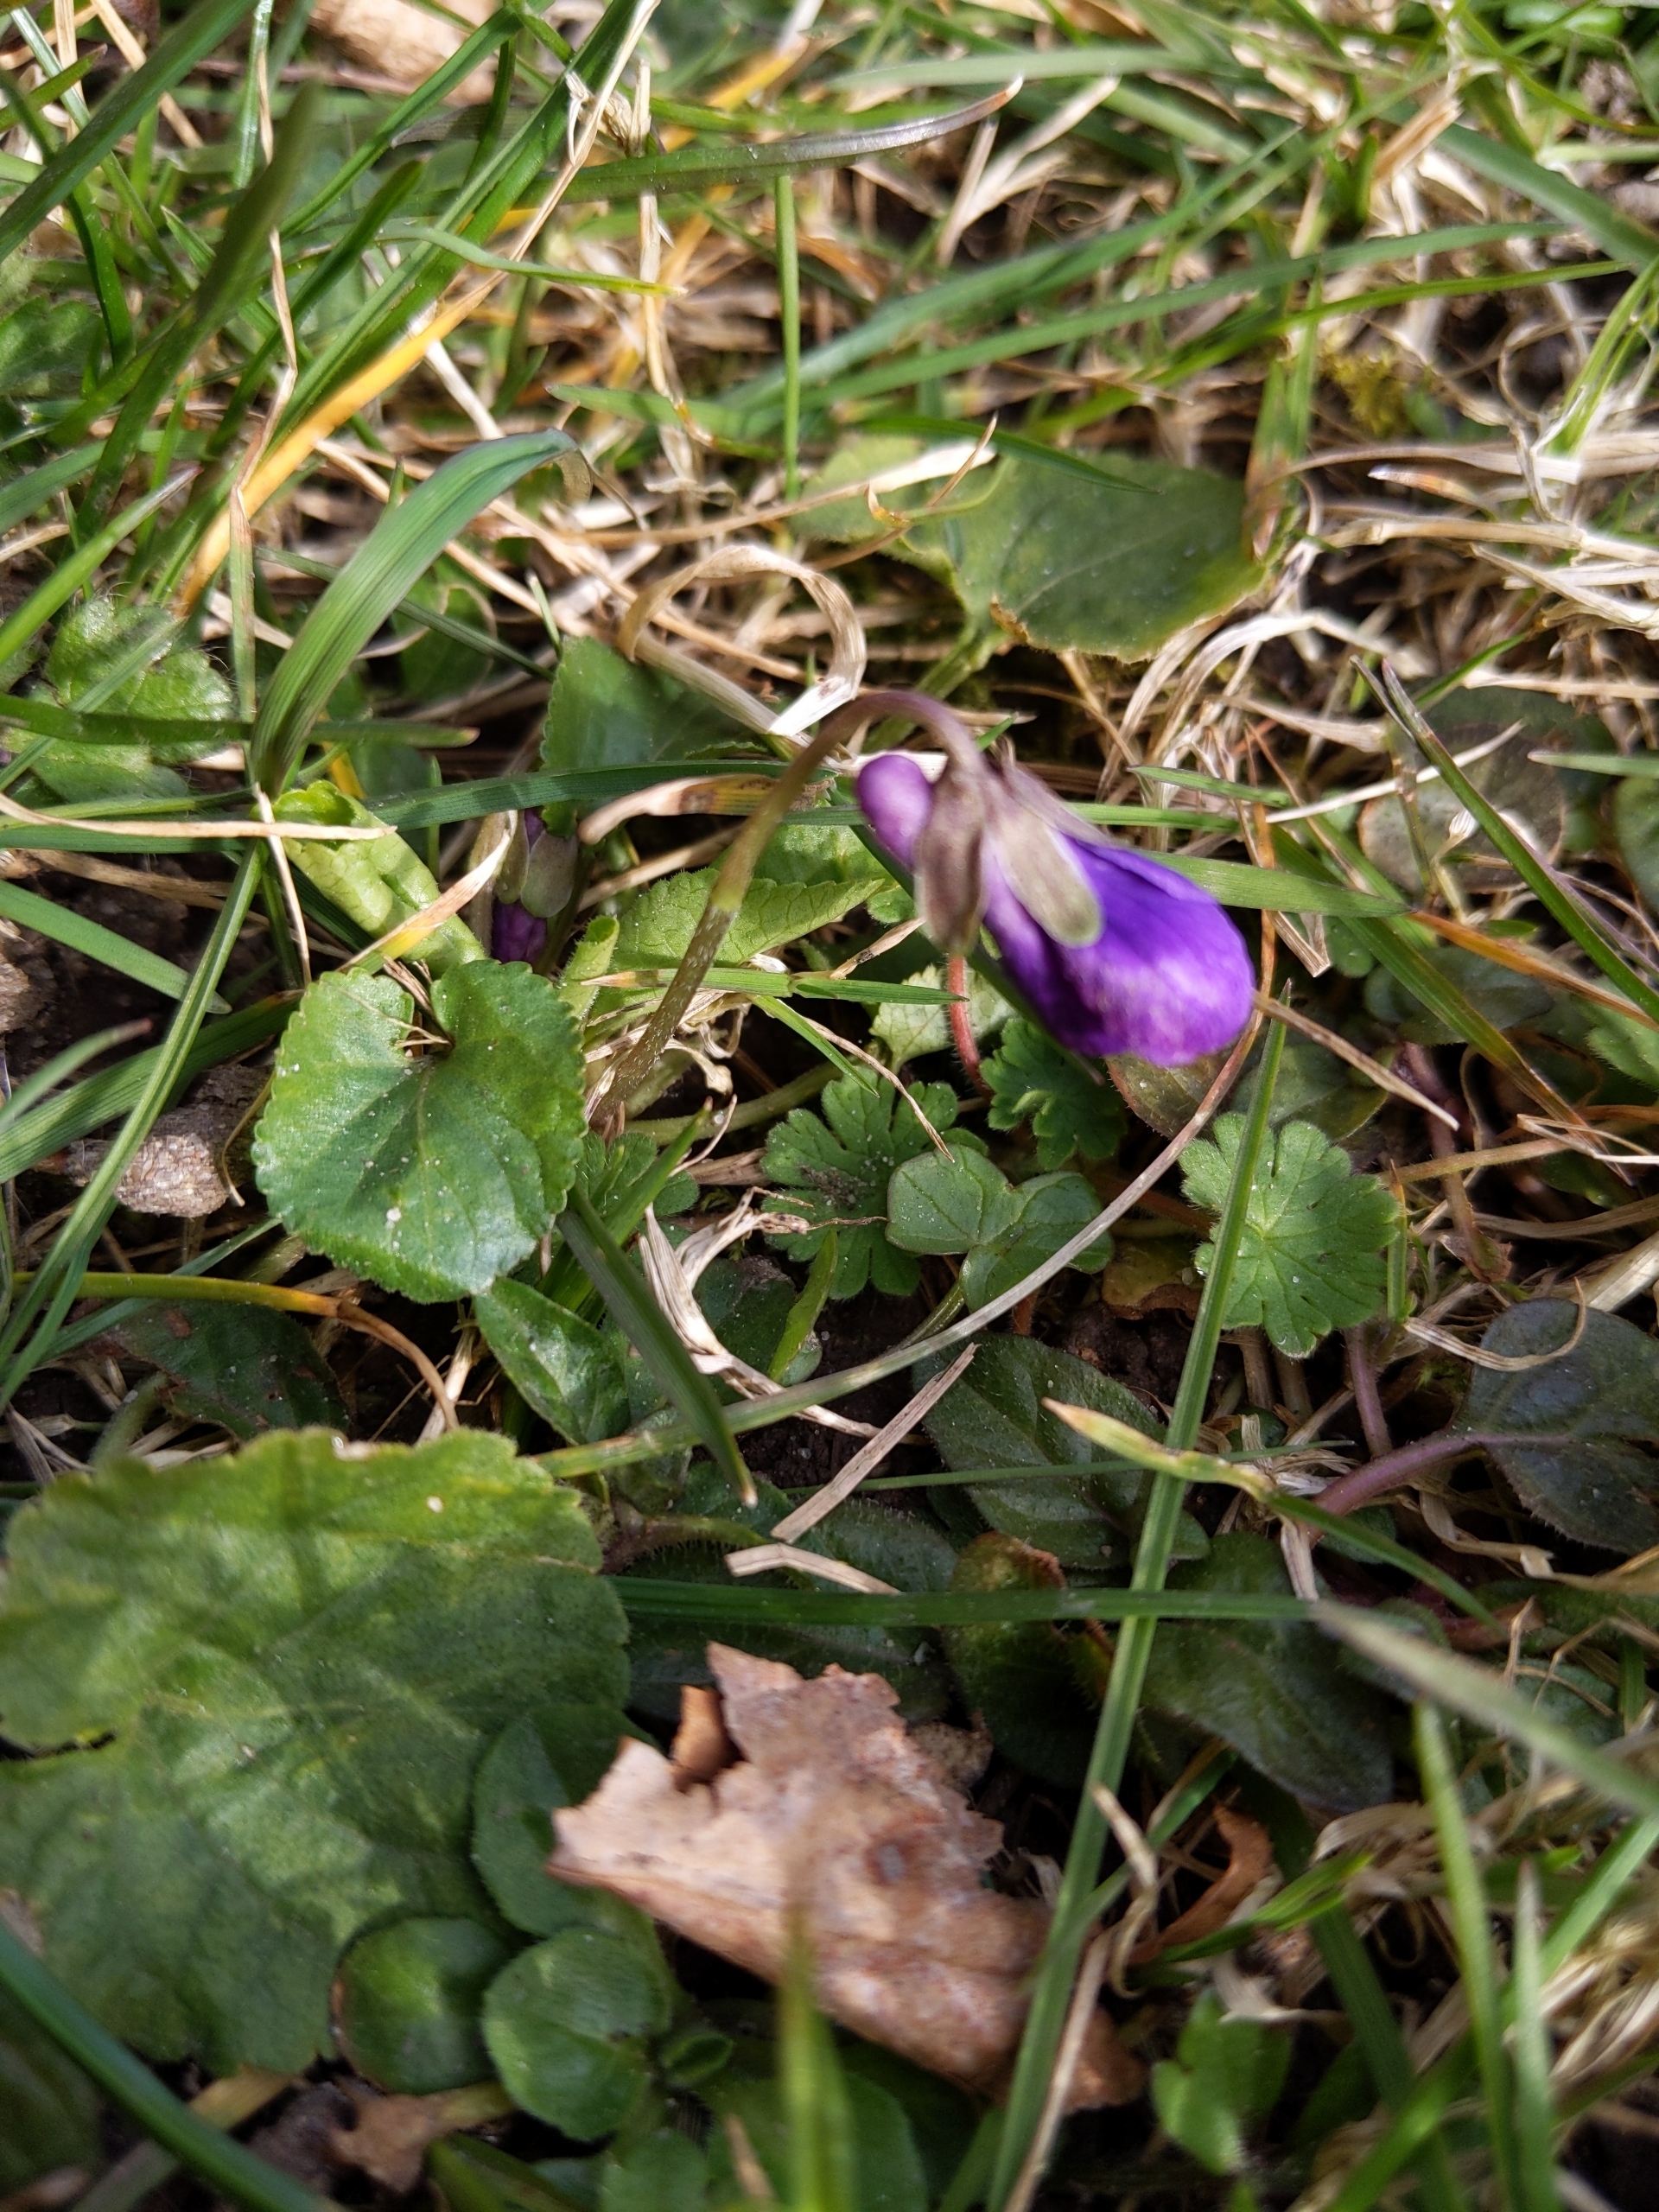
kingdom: Plantae
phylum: Tracheophyta
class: Magnoliopsida
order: Malpighiales
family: Violaceae
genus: Viola
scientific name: Viola odorata
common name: Marts-viol
